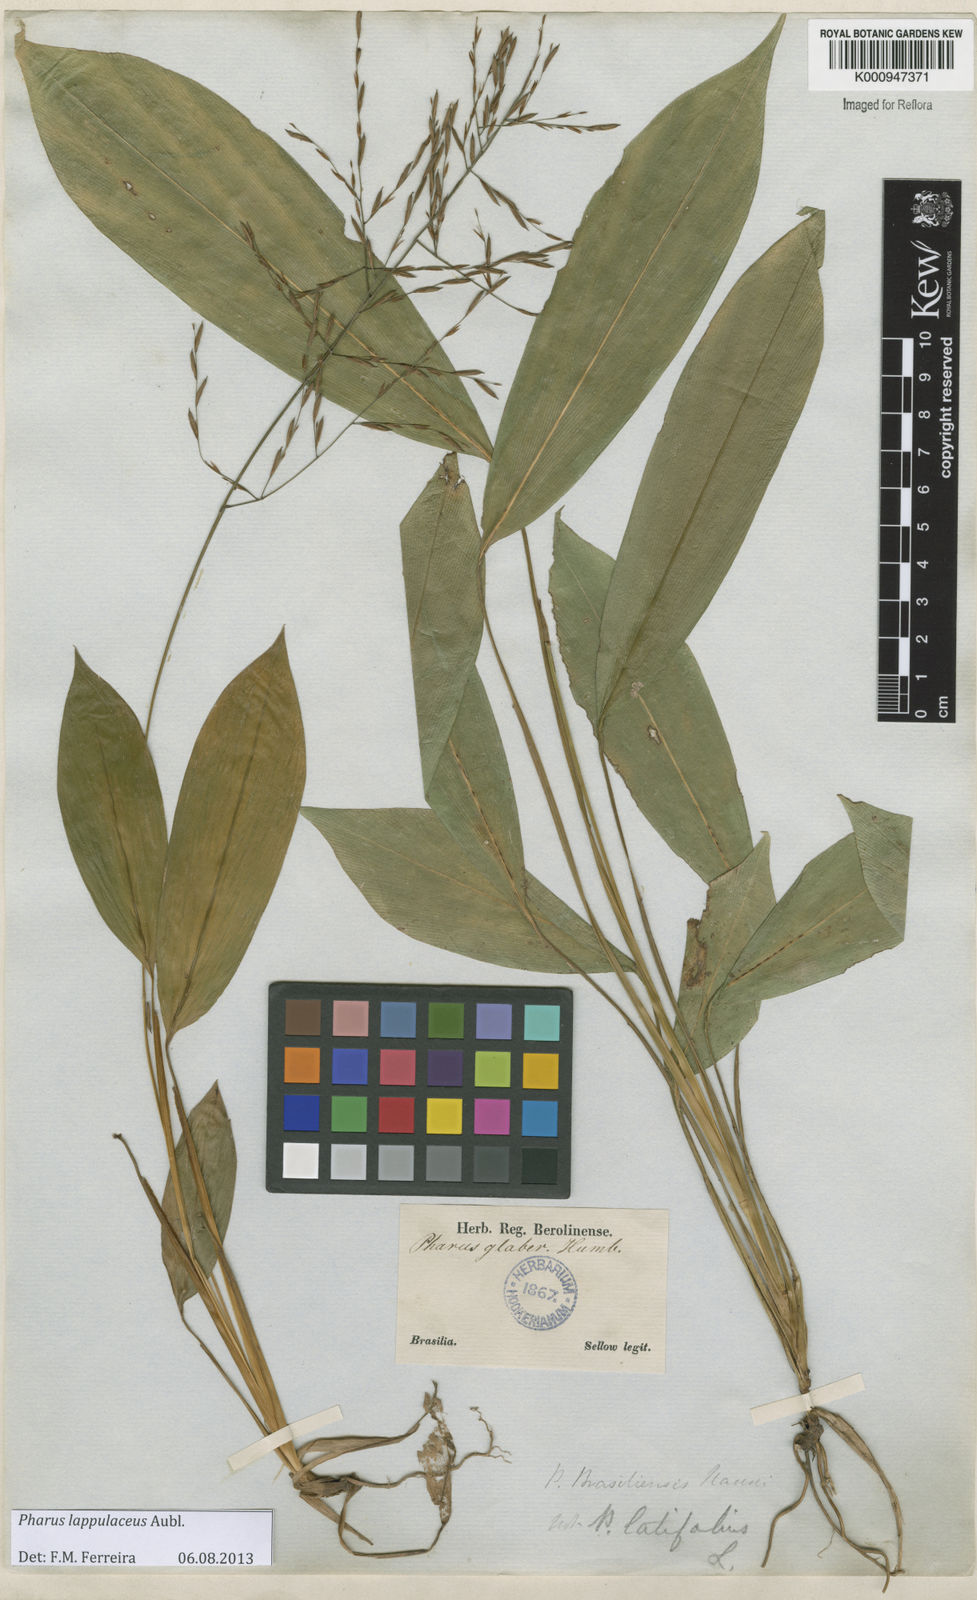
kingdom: Plantae
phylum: Tracheophyta
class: Liliopsida
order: Poales
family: Poaceae
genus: Pharus
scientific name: Pharus lappulaceus
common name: Creeping leafstalk grass
